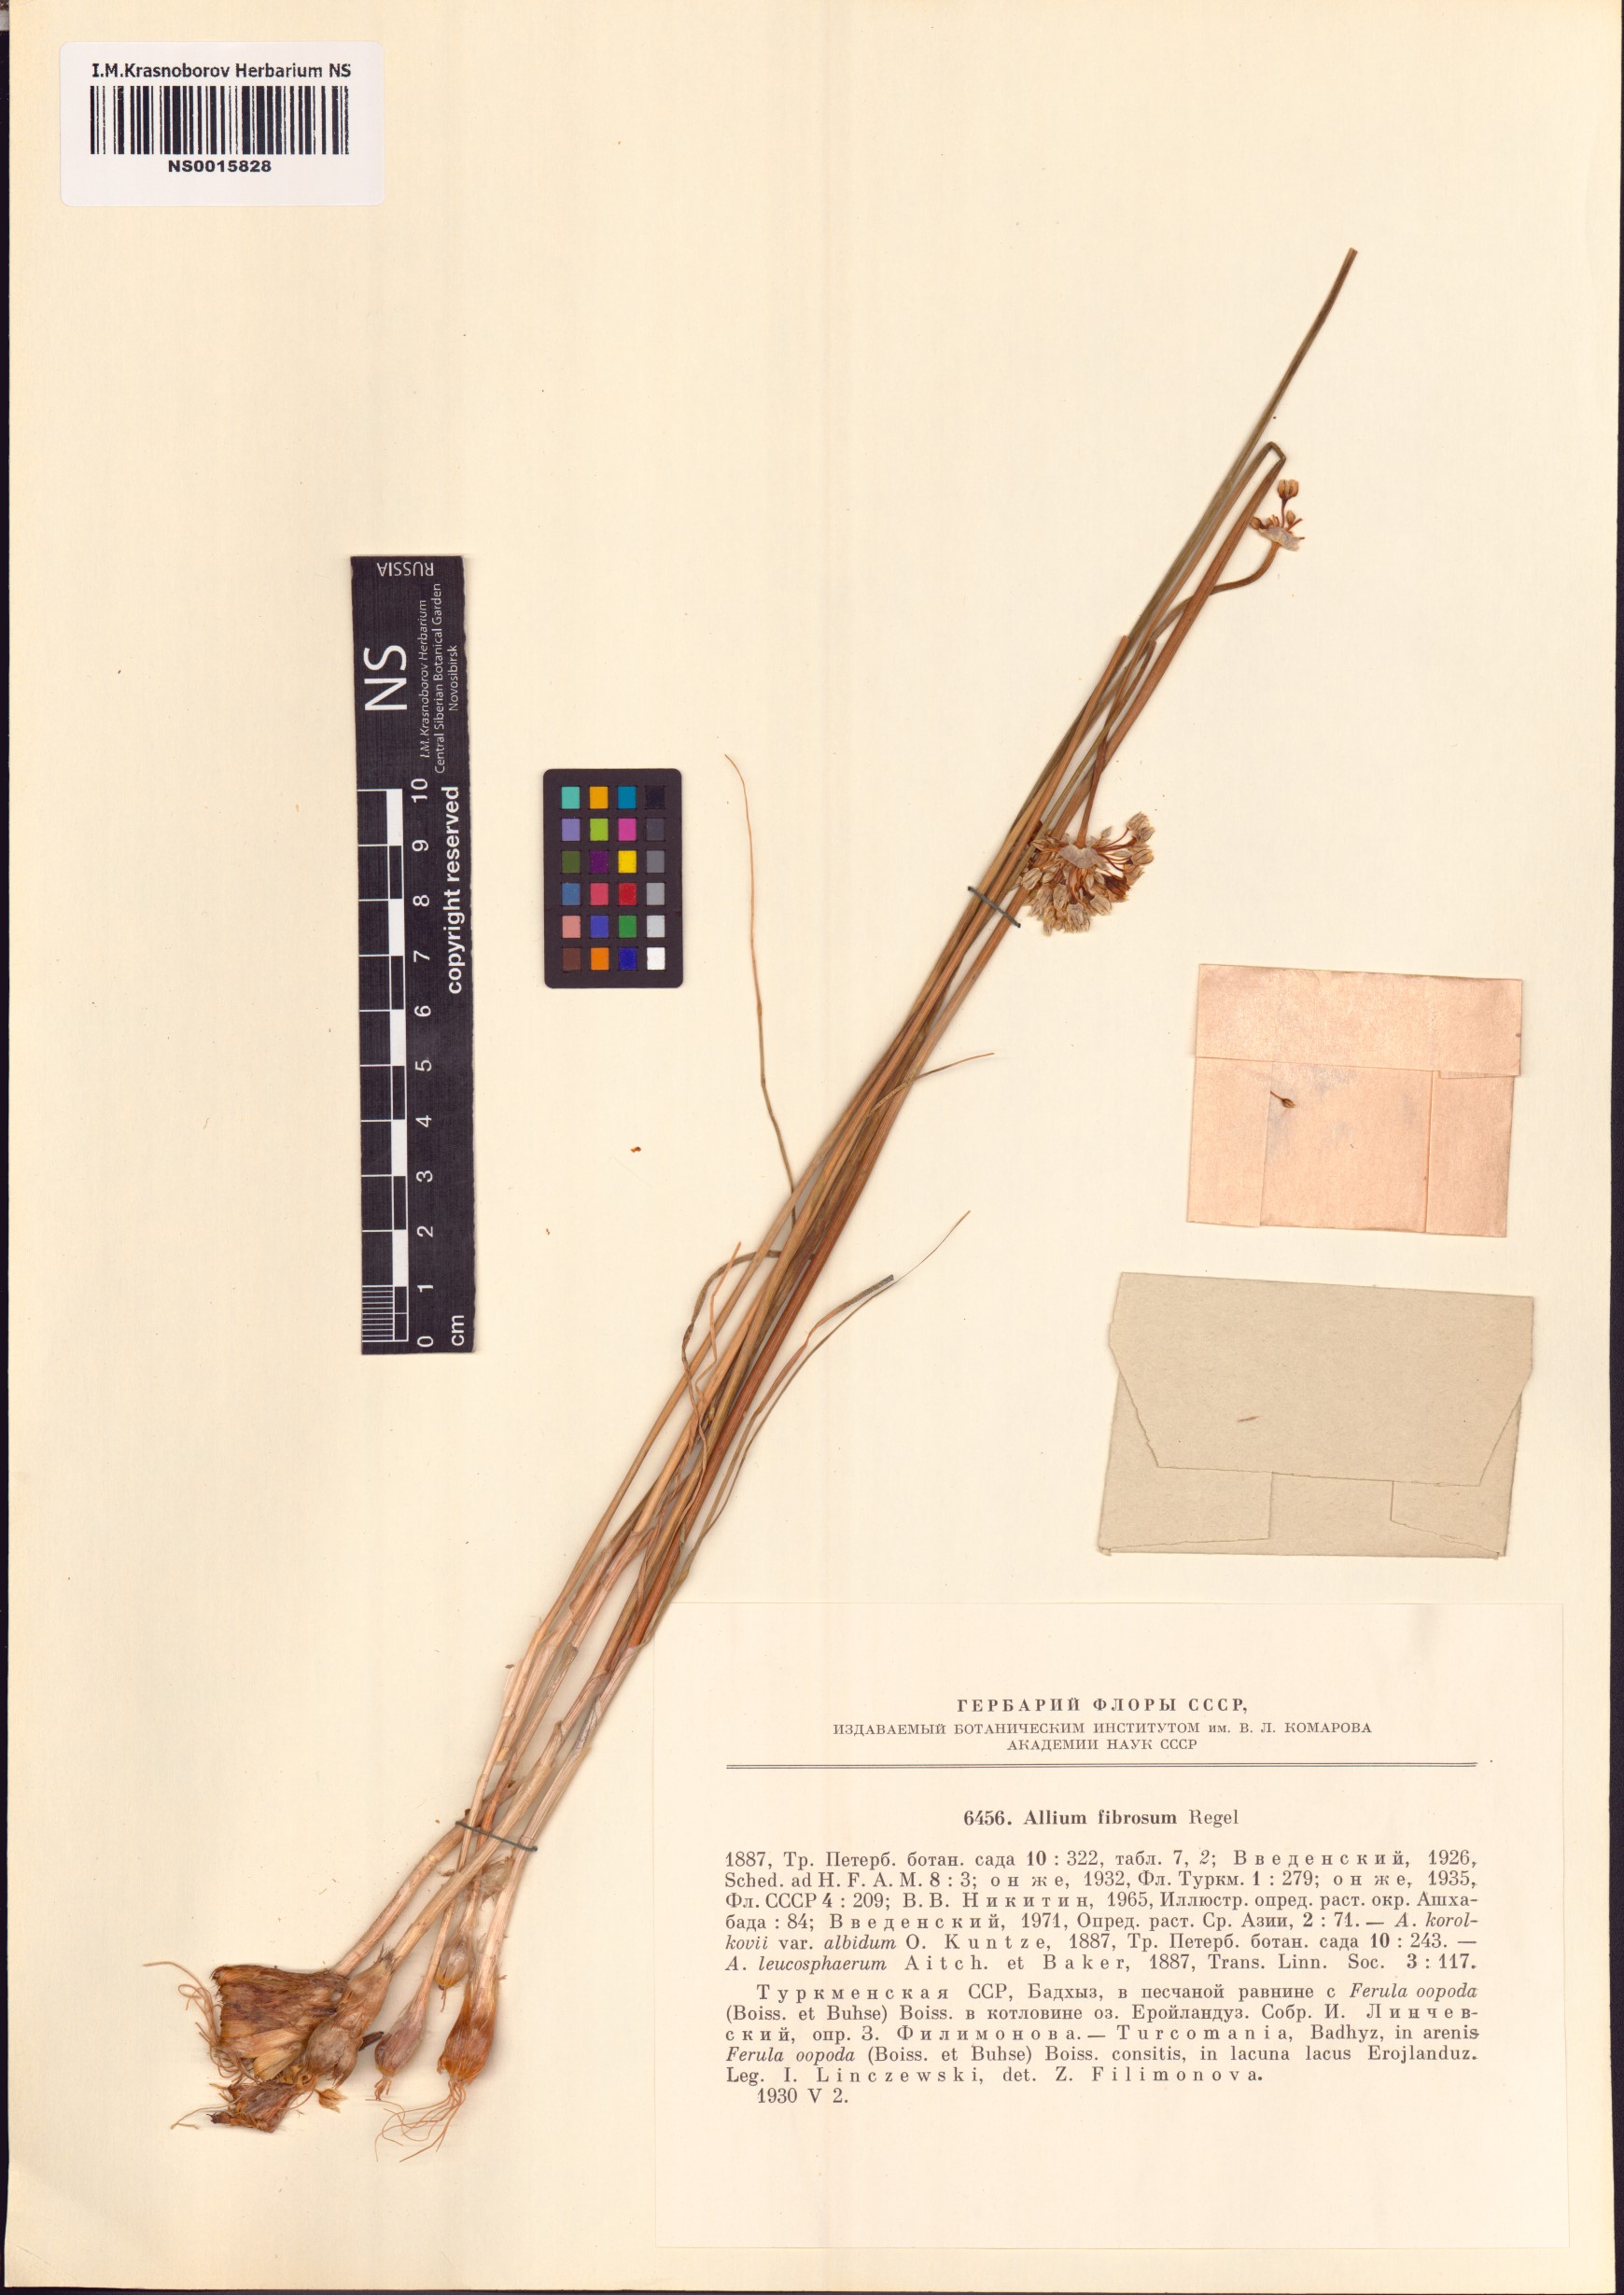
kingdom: Plantae
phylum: Tracheophyta
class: Liliopsida
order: Asparagales
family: Amaryllidaceae
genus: Allium
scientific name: Allium leucosphaerum
